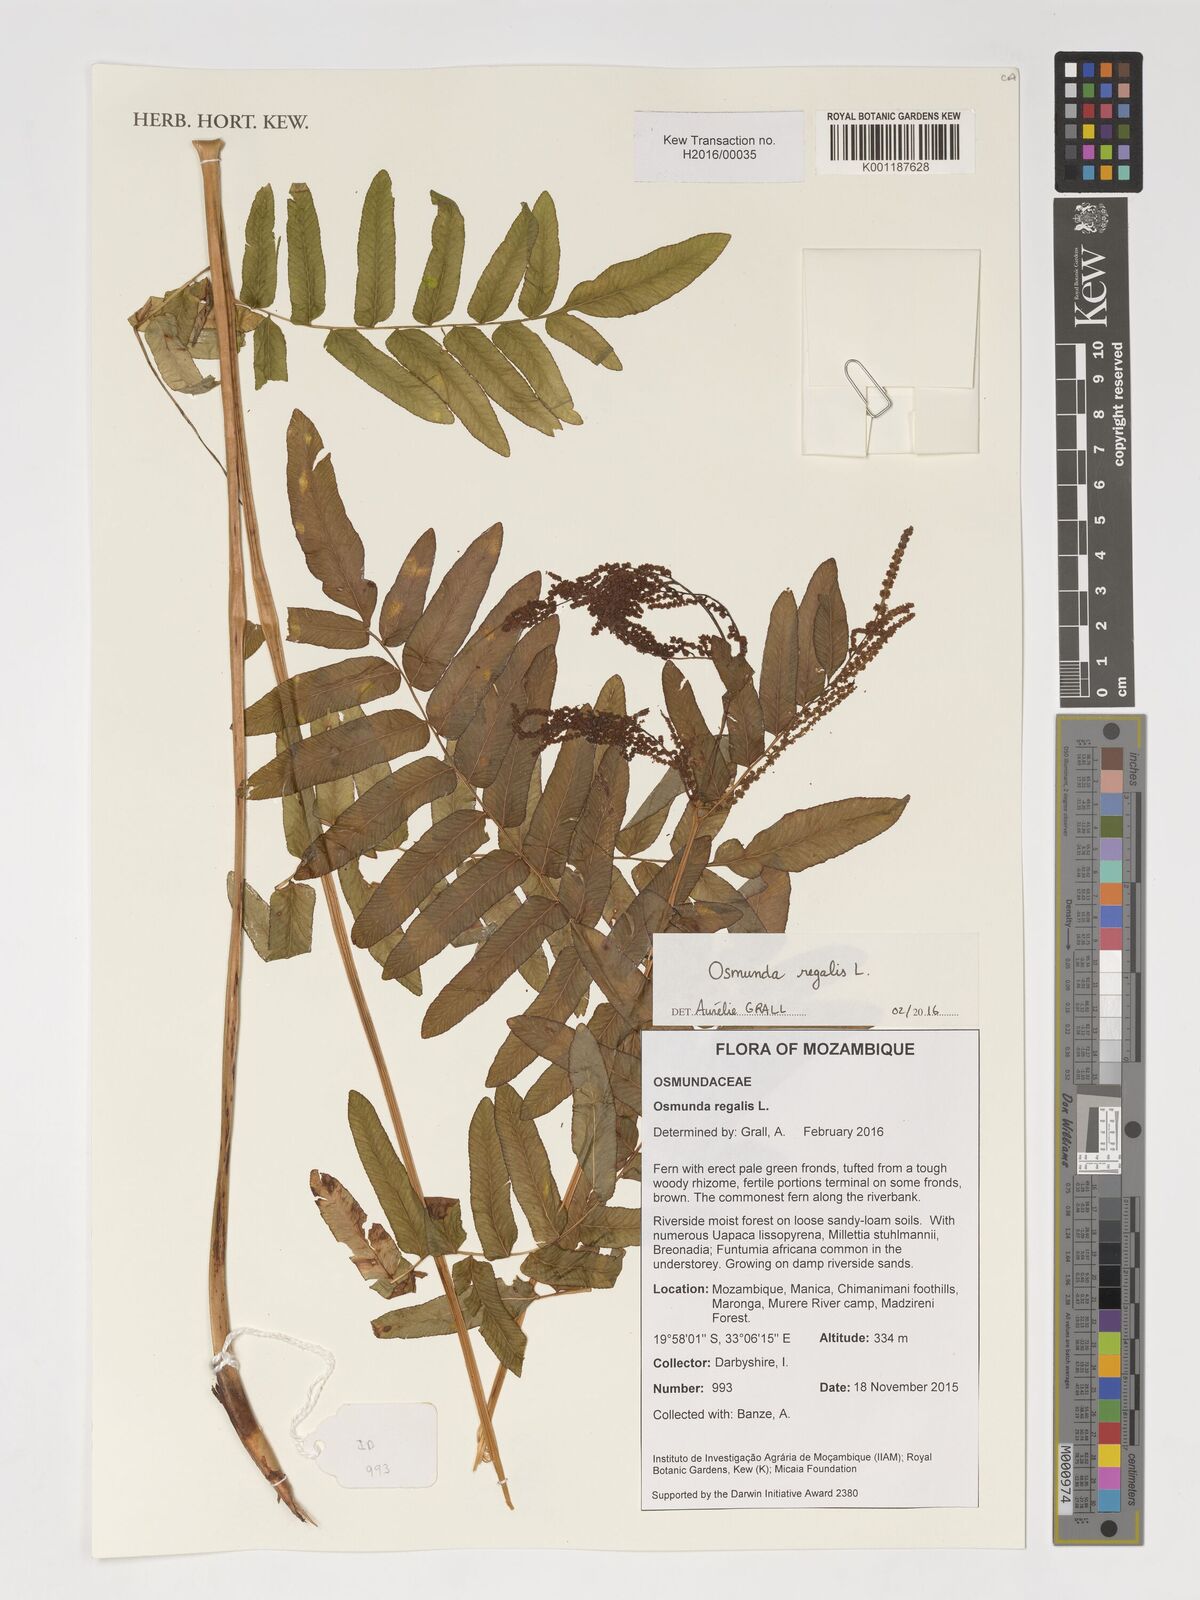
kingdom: Plantae
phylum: Tracheophyta
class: Polypodiopsida
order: Osmundales
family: Osmundaceae
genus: Osmunda
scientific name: Osmunda regalis
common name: Royal fern
